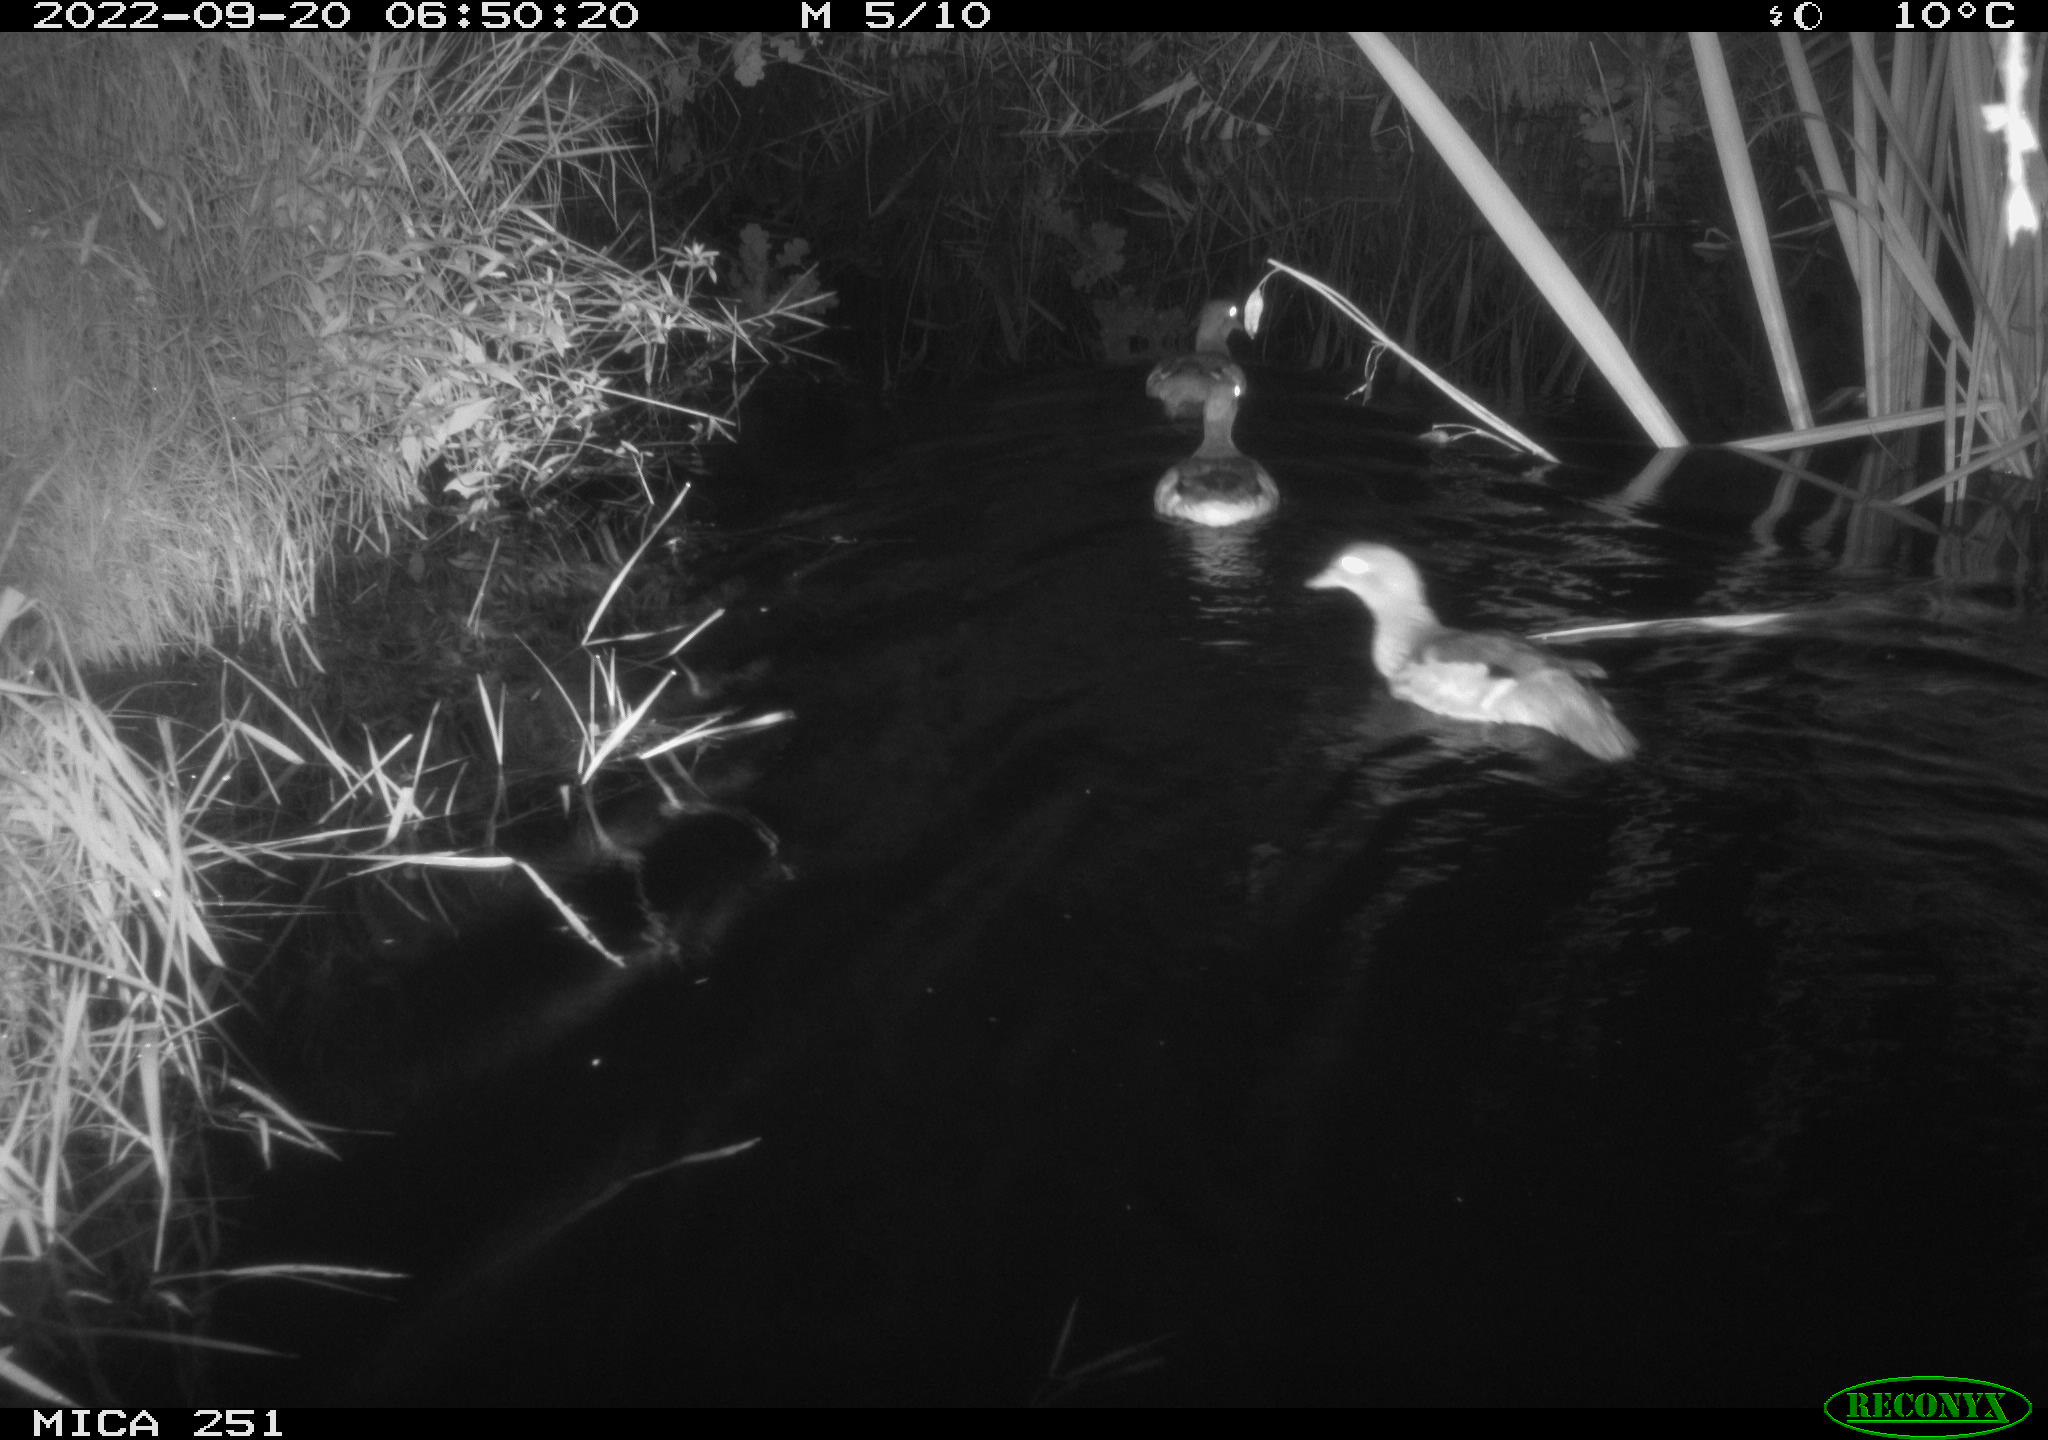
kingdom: Animalia
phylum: Chordata
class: Aves
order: Anseriformes
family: Anatidae
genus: Anas
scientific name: Anas
